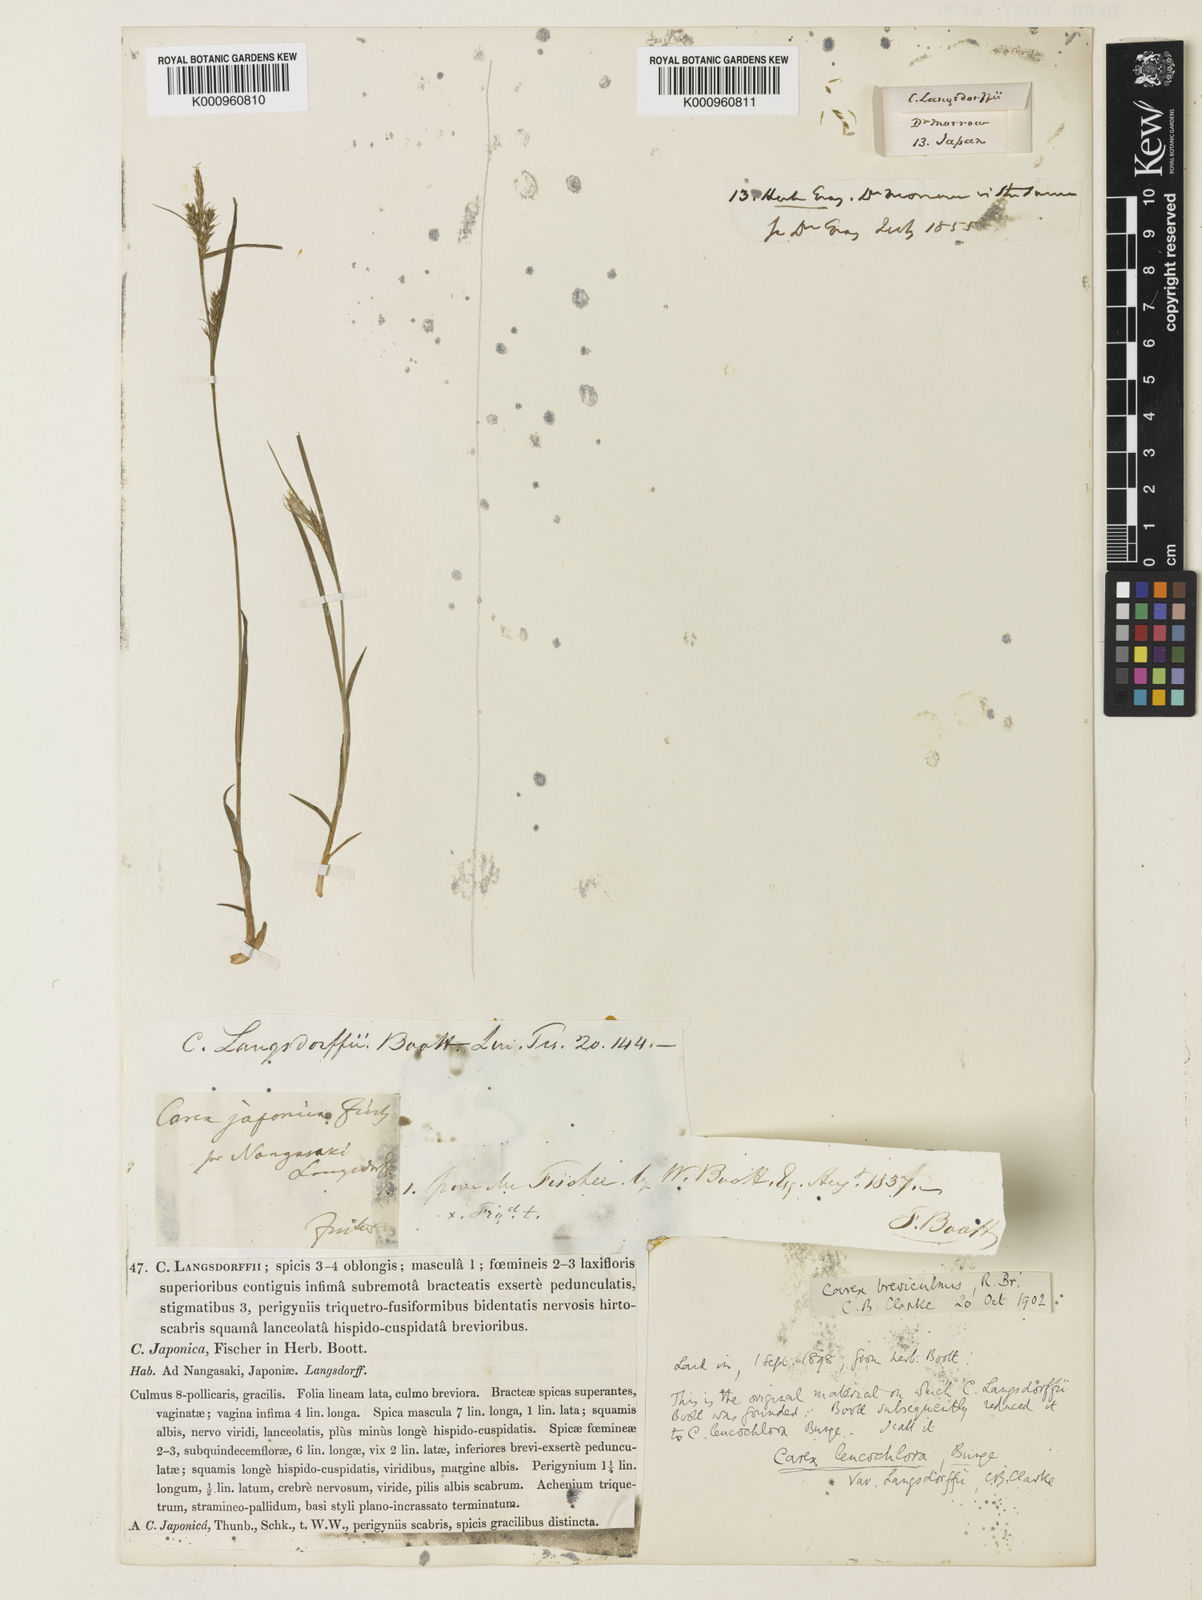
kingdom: Plantae
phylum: Tracheophyta
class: Liliopsida
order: Poales
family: Cyperaceae
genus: Carex
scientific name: Carex breviculmis
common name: Asian shortstem sedge
